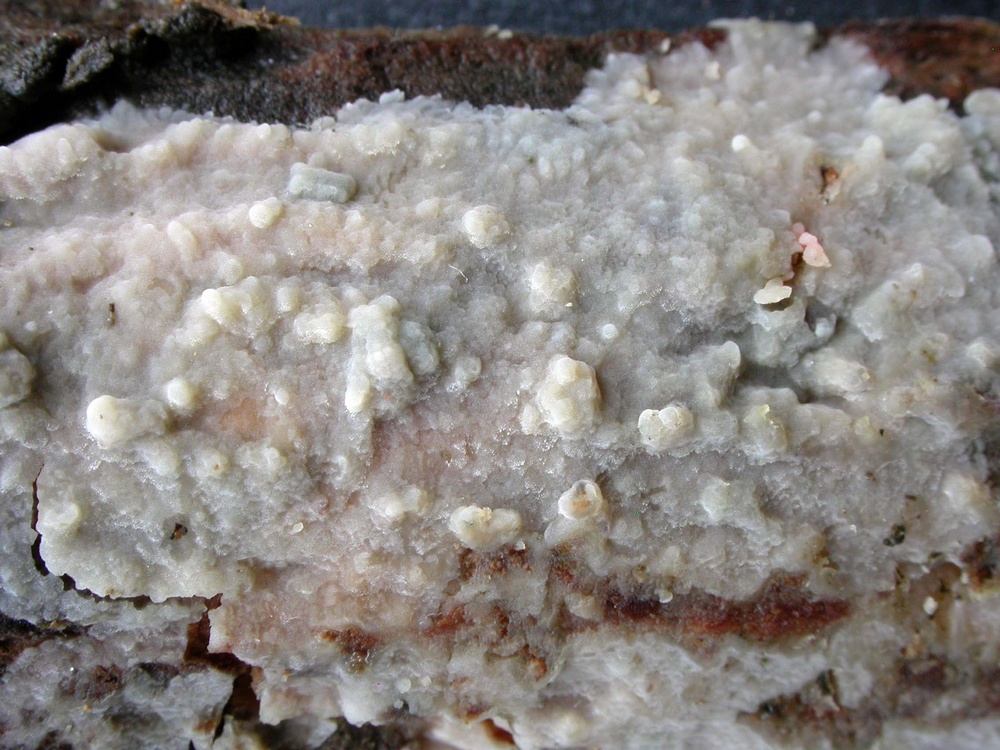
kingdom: Fungi
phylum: Basidiomycota
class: Agaricomycetes
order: Agaricales
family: Radulomycetaceae
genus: Radulomyces
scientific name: Radulomyces confluens
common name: glat naftalinskind
